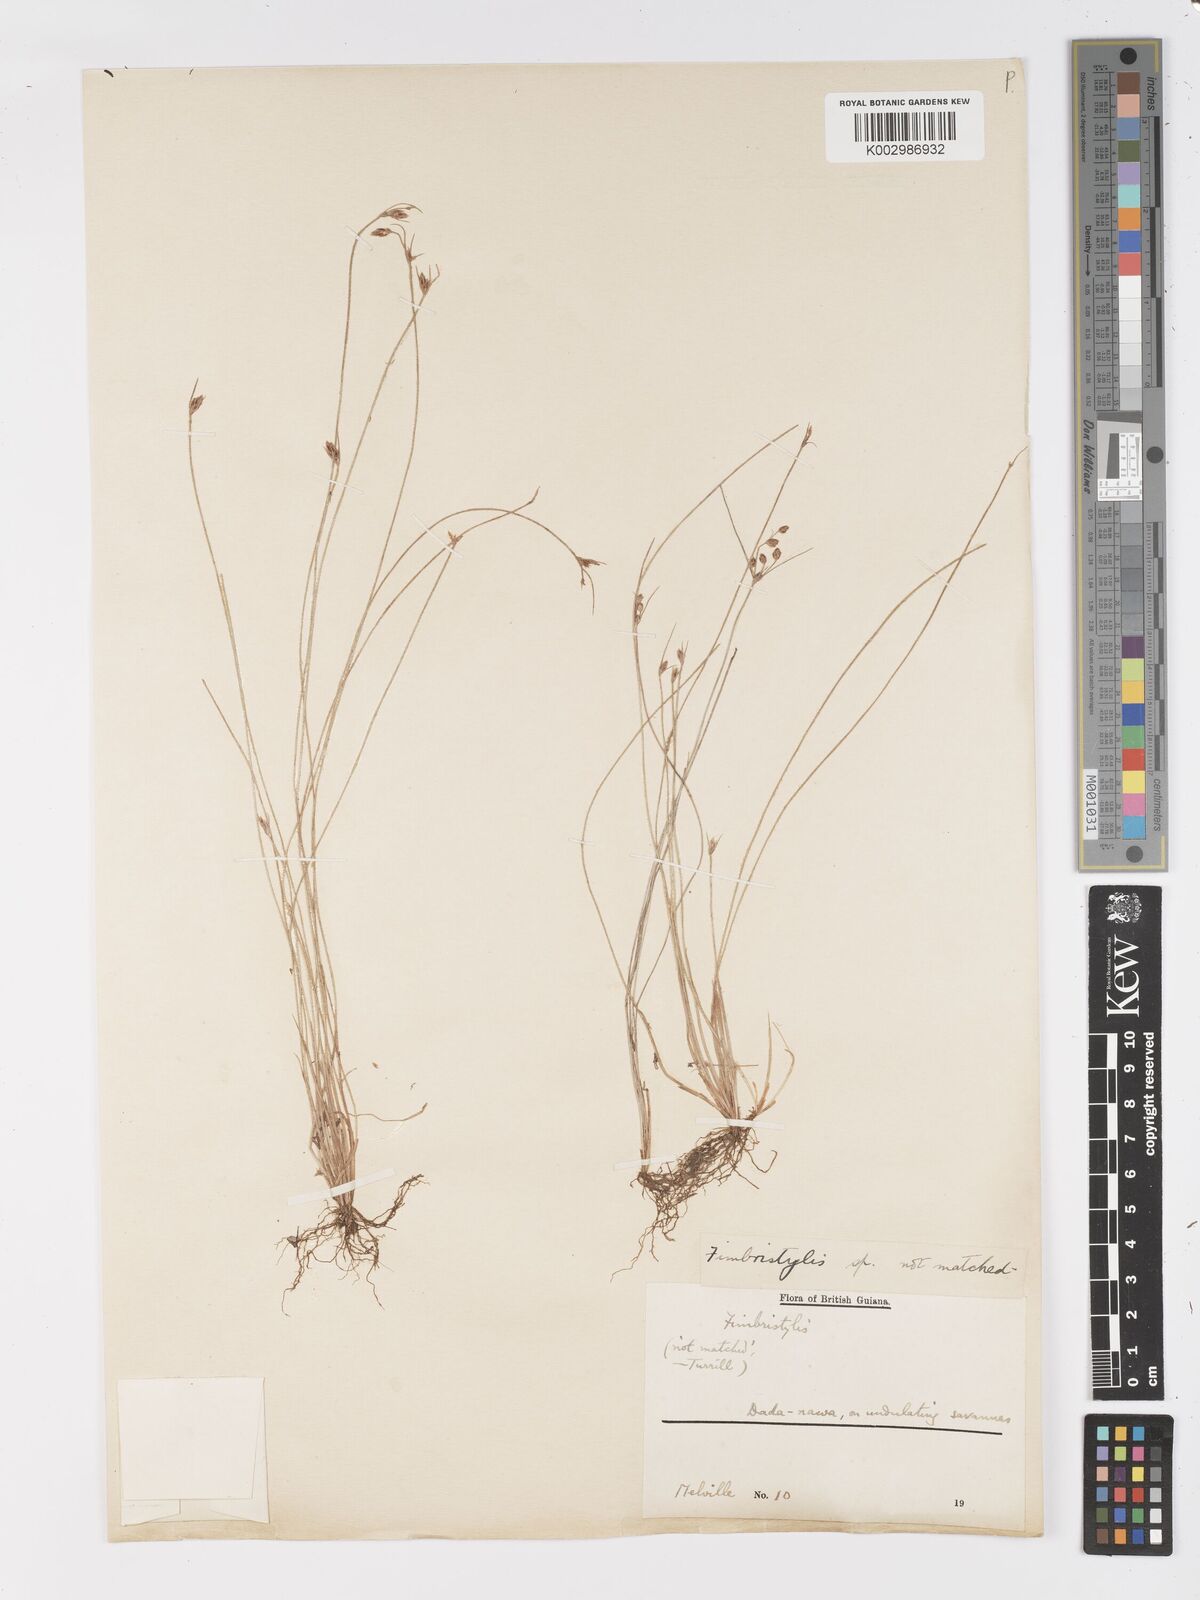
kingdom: Plantae
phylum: Tracheophyta
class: Liliopsida
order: Poales
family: Cyperaceae
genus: Fimbristylis
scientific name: Fimbristylis
